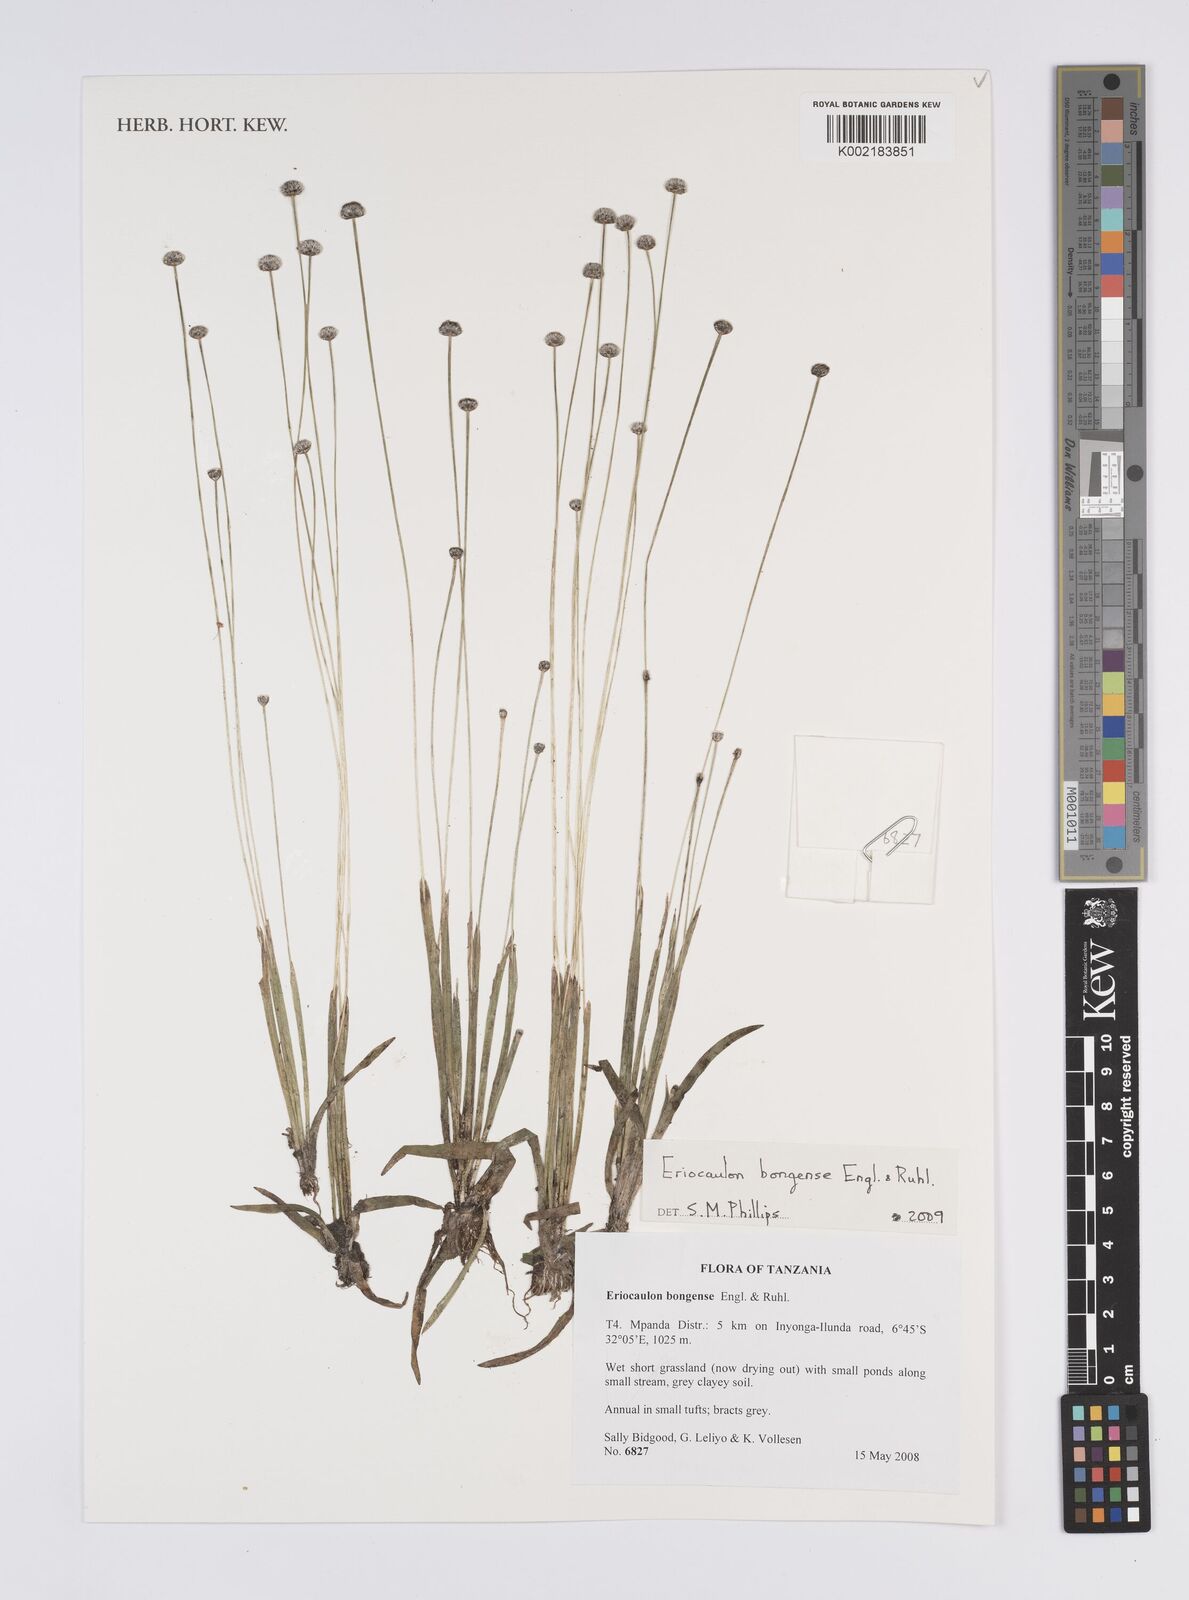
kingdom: Plantae
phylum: Tracheophyta
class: Liliopsida
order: Poales
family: Eriocaulaceae
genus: Eriocaulon
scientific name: Eriocaulon bongense
